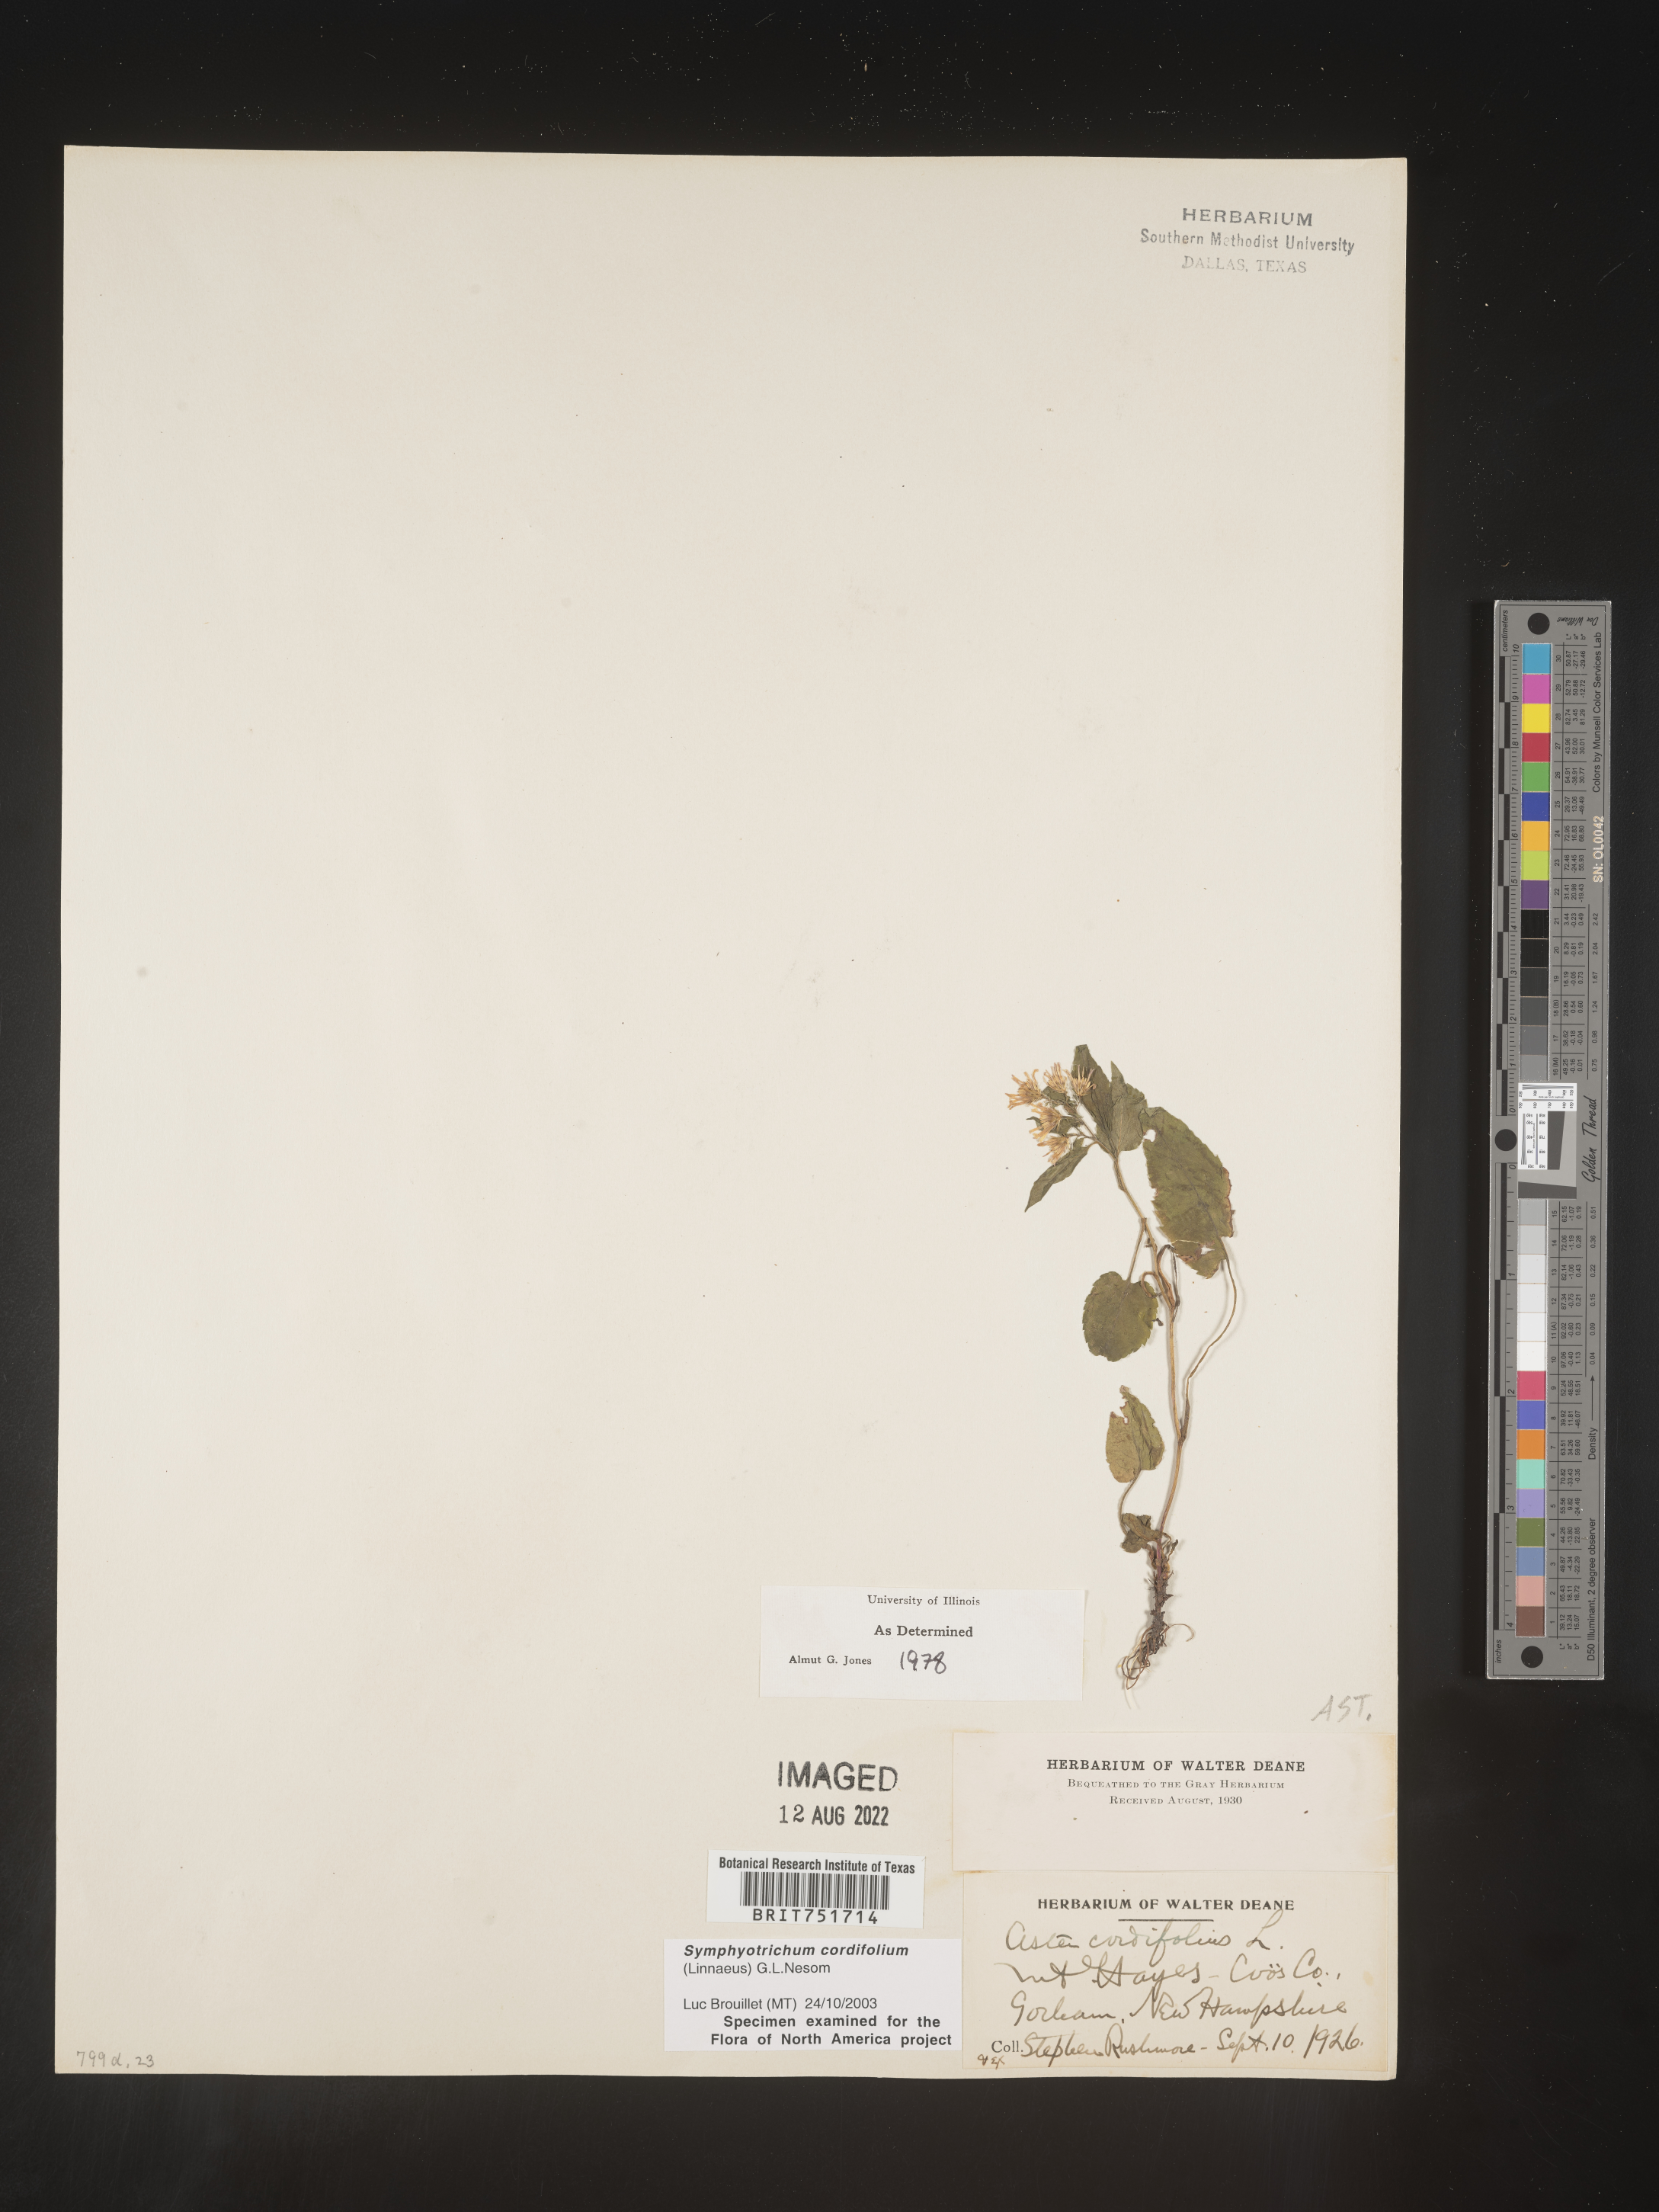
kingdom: Plantae
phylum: Tracheophyta
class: Magnoliopsida
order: Asterales
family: Asteraceae
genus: Symphyotrichum
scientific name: Symphyotrichum cordifolium
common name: Beeweed
